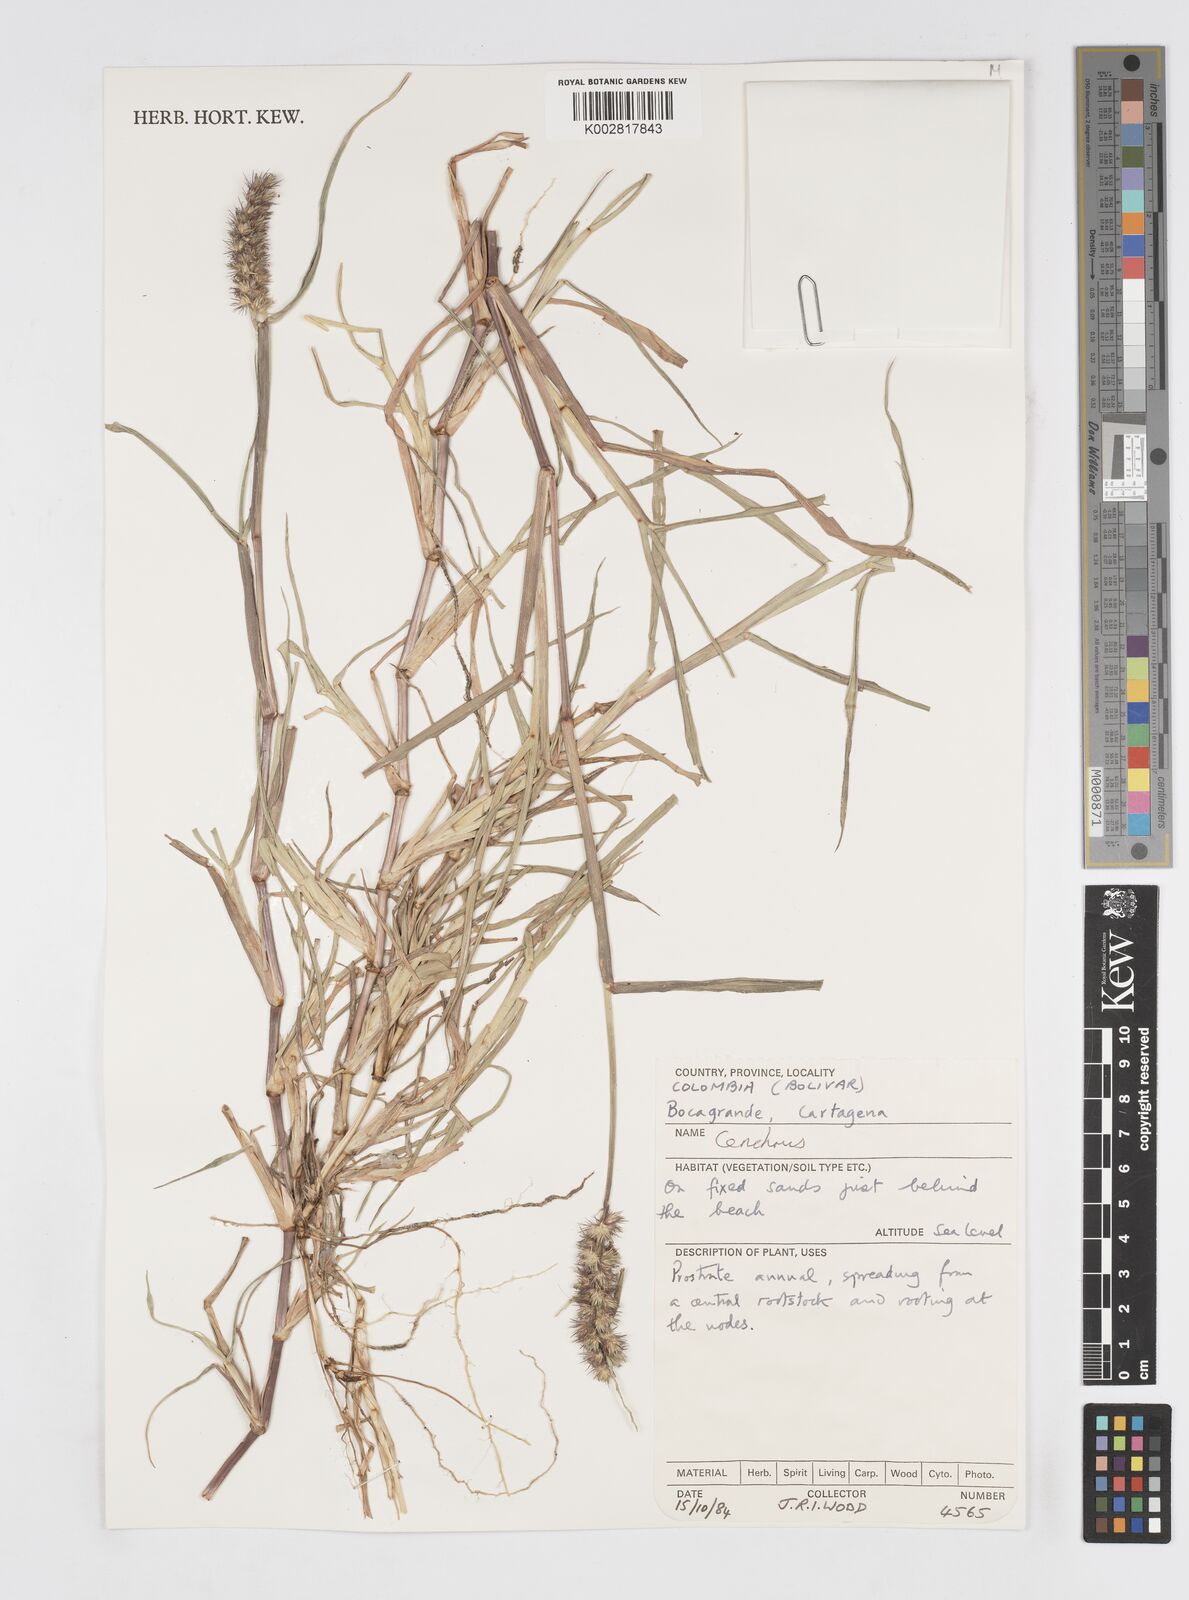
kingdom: Plantae
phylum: Tracheophyta
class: Liliopsida
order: Poales
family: Poaceae
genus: Cenchrus
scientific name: Cenchrus
